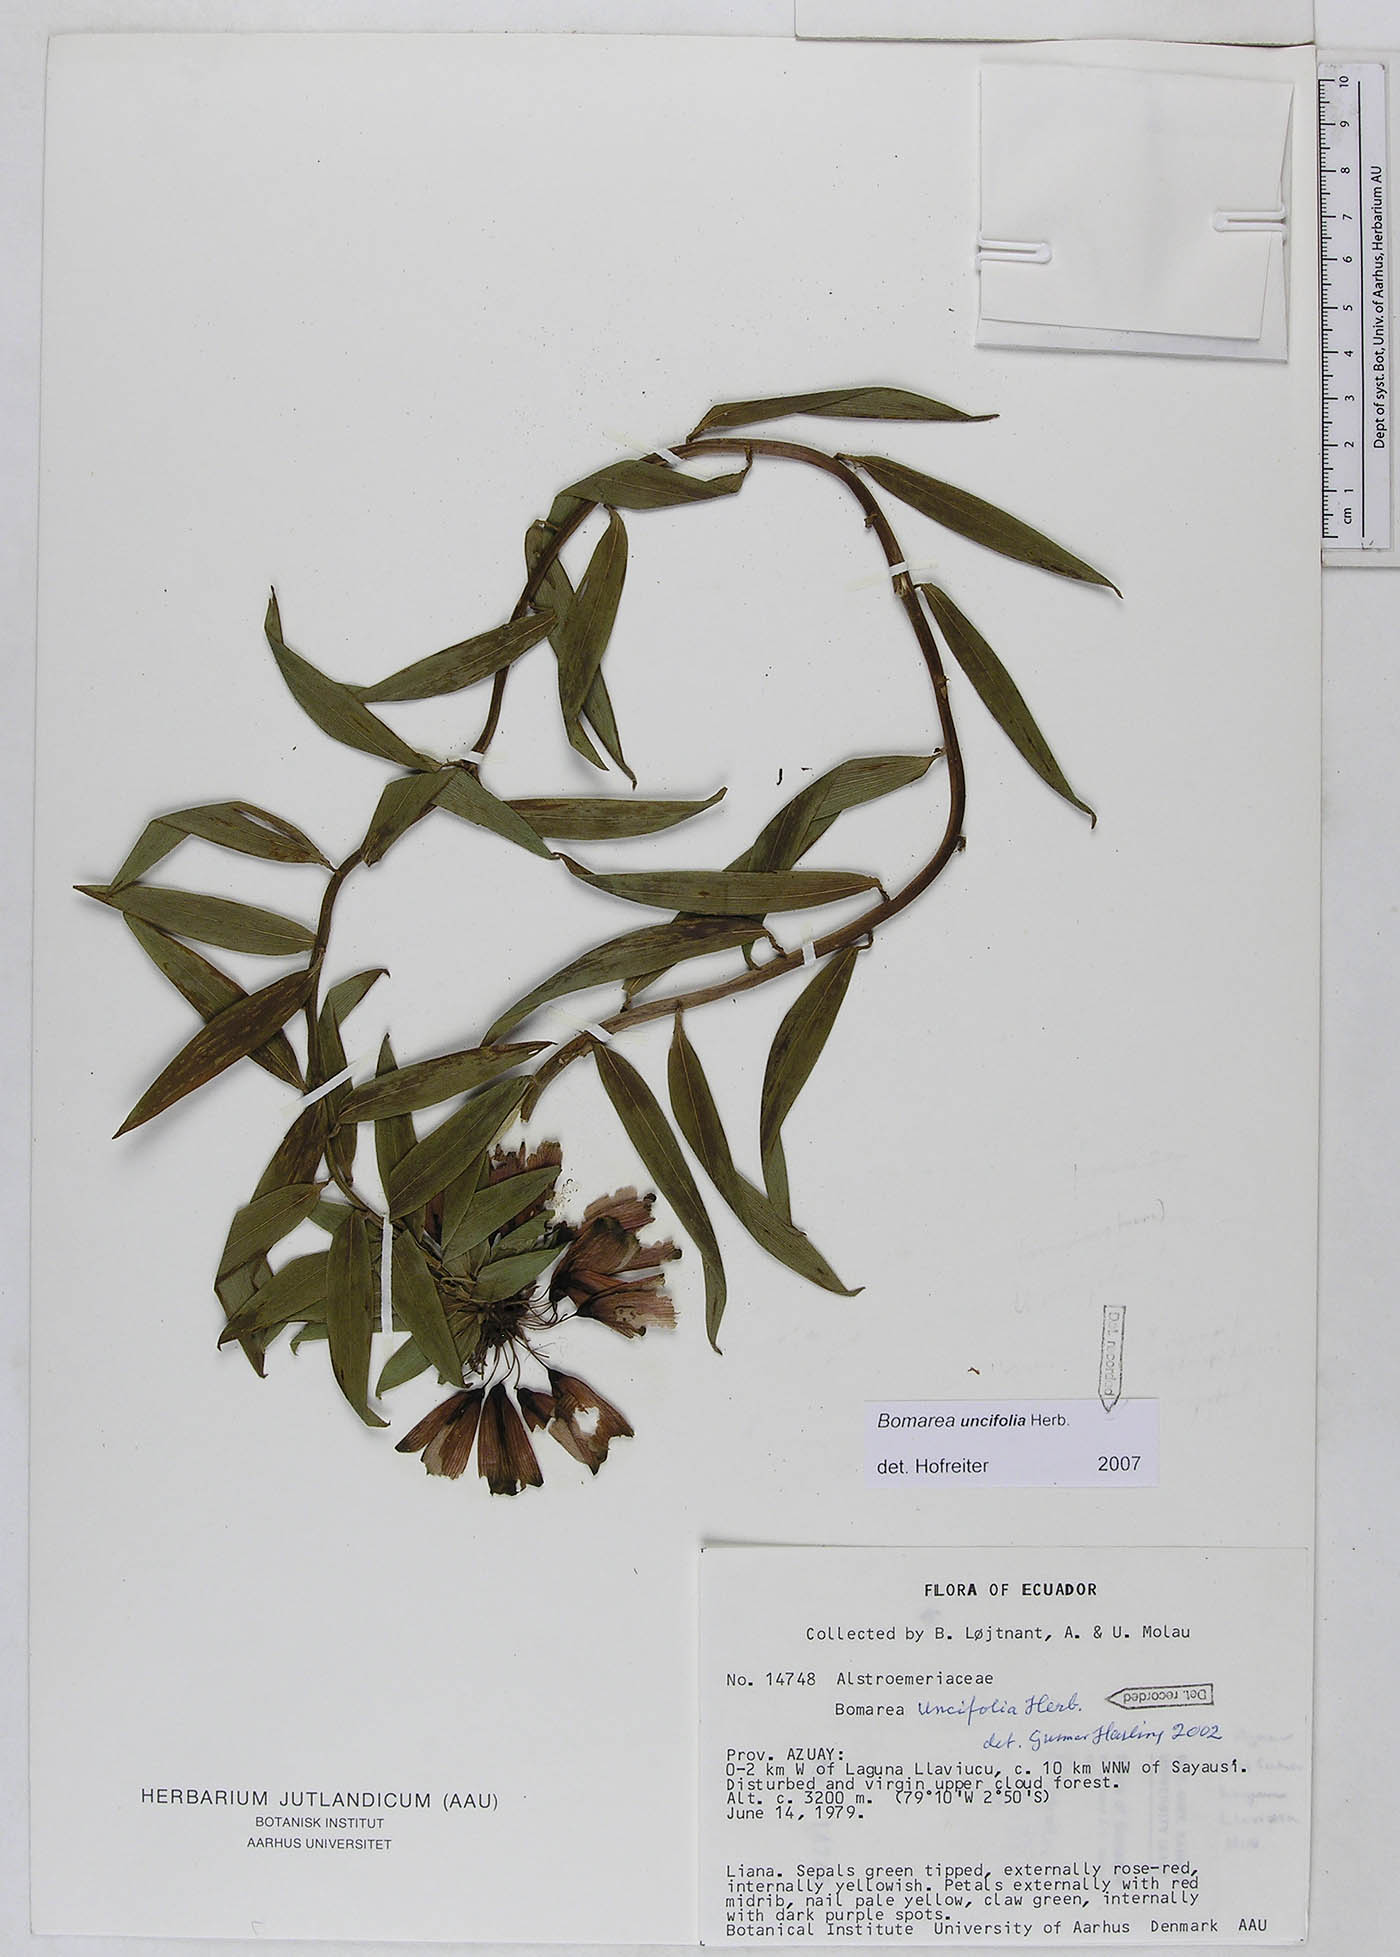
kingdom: Plantae
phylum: Tracheophyta
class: Liliopsida
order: Liliales
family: Alstroemeriaceae
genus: Bomarea
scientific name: Bomarea uncifolia
